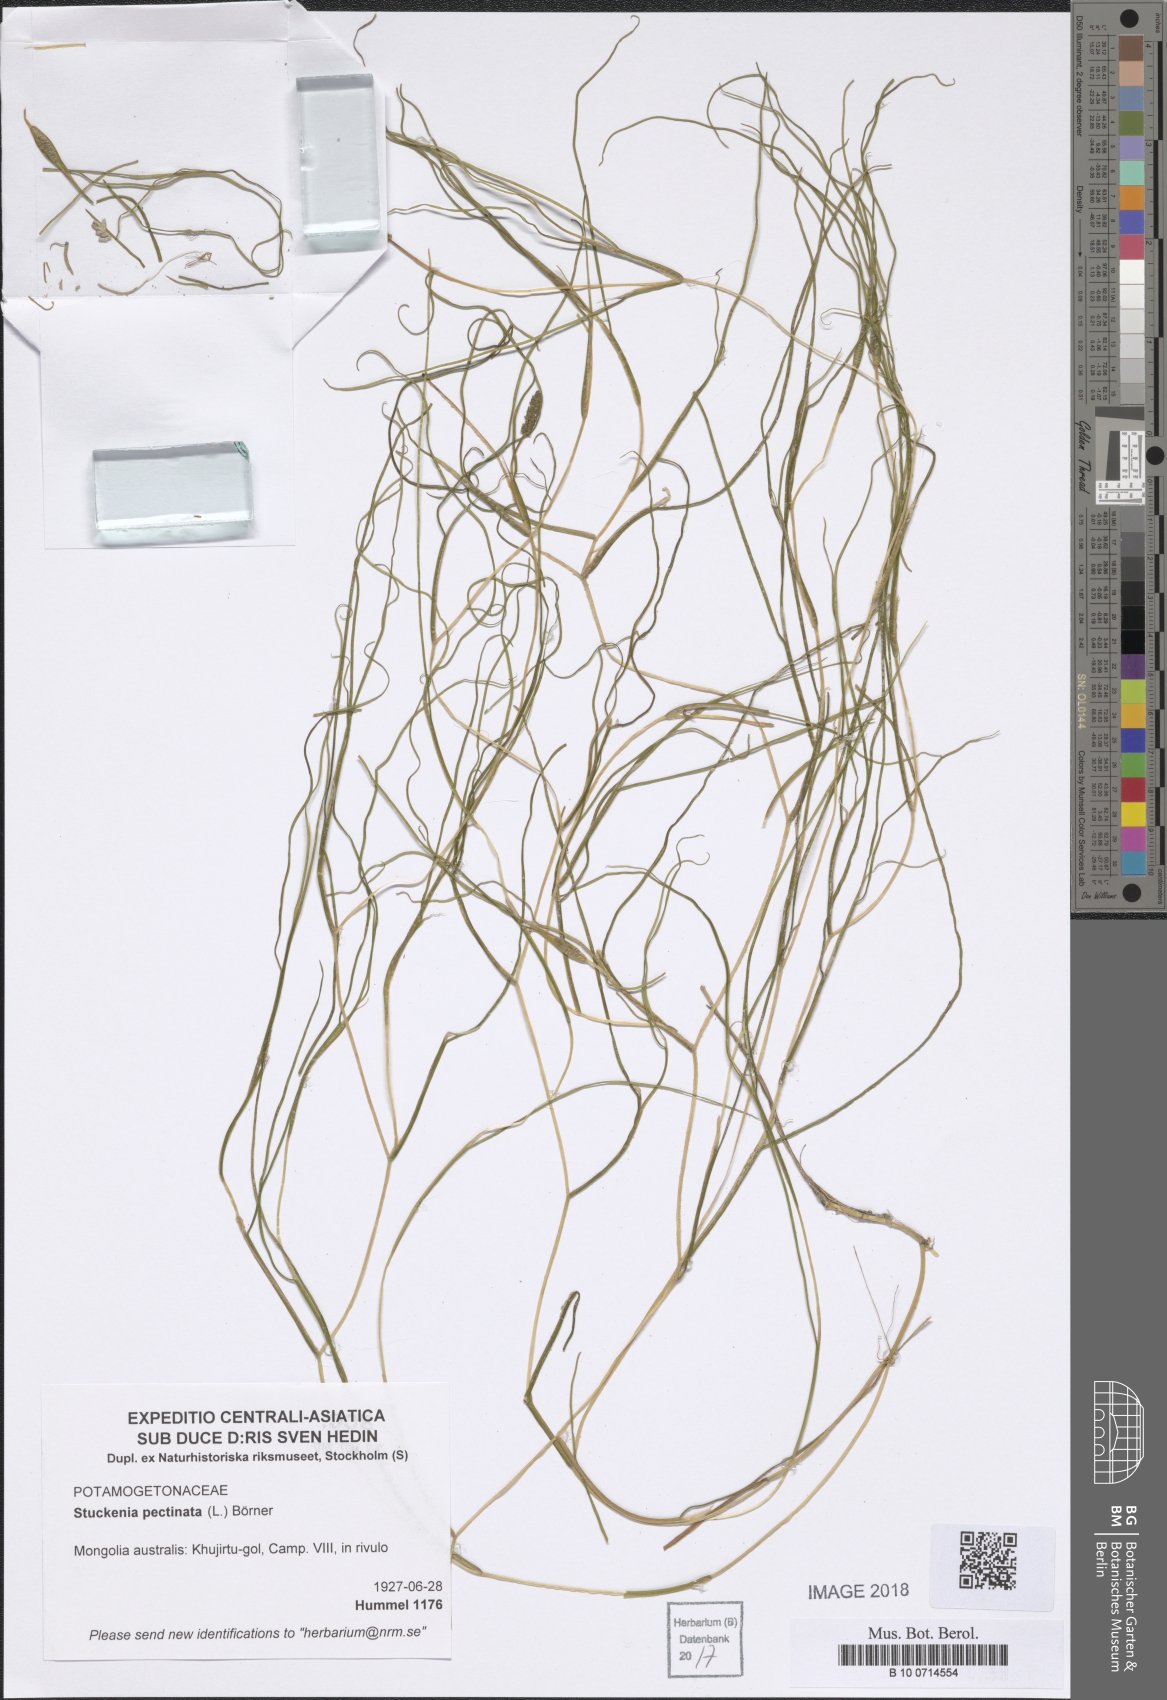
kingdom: Plantae
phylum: Tracheophyta
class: Liliopsida
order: Alismatales
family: Potamogetonaceae
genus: Stuckenia
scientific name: Stuckenia pectinata
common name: Sago pondweed
